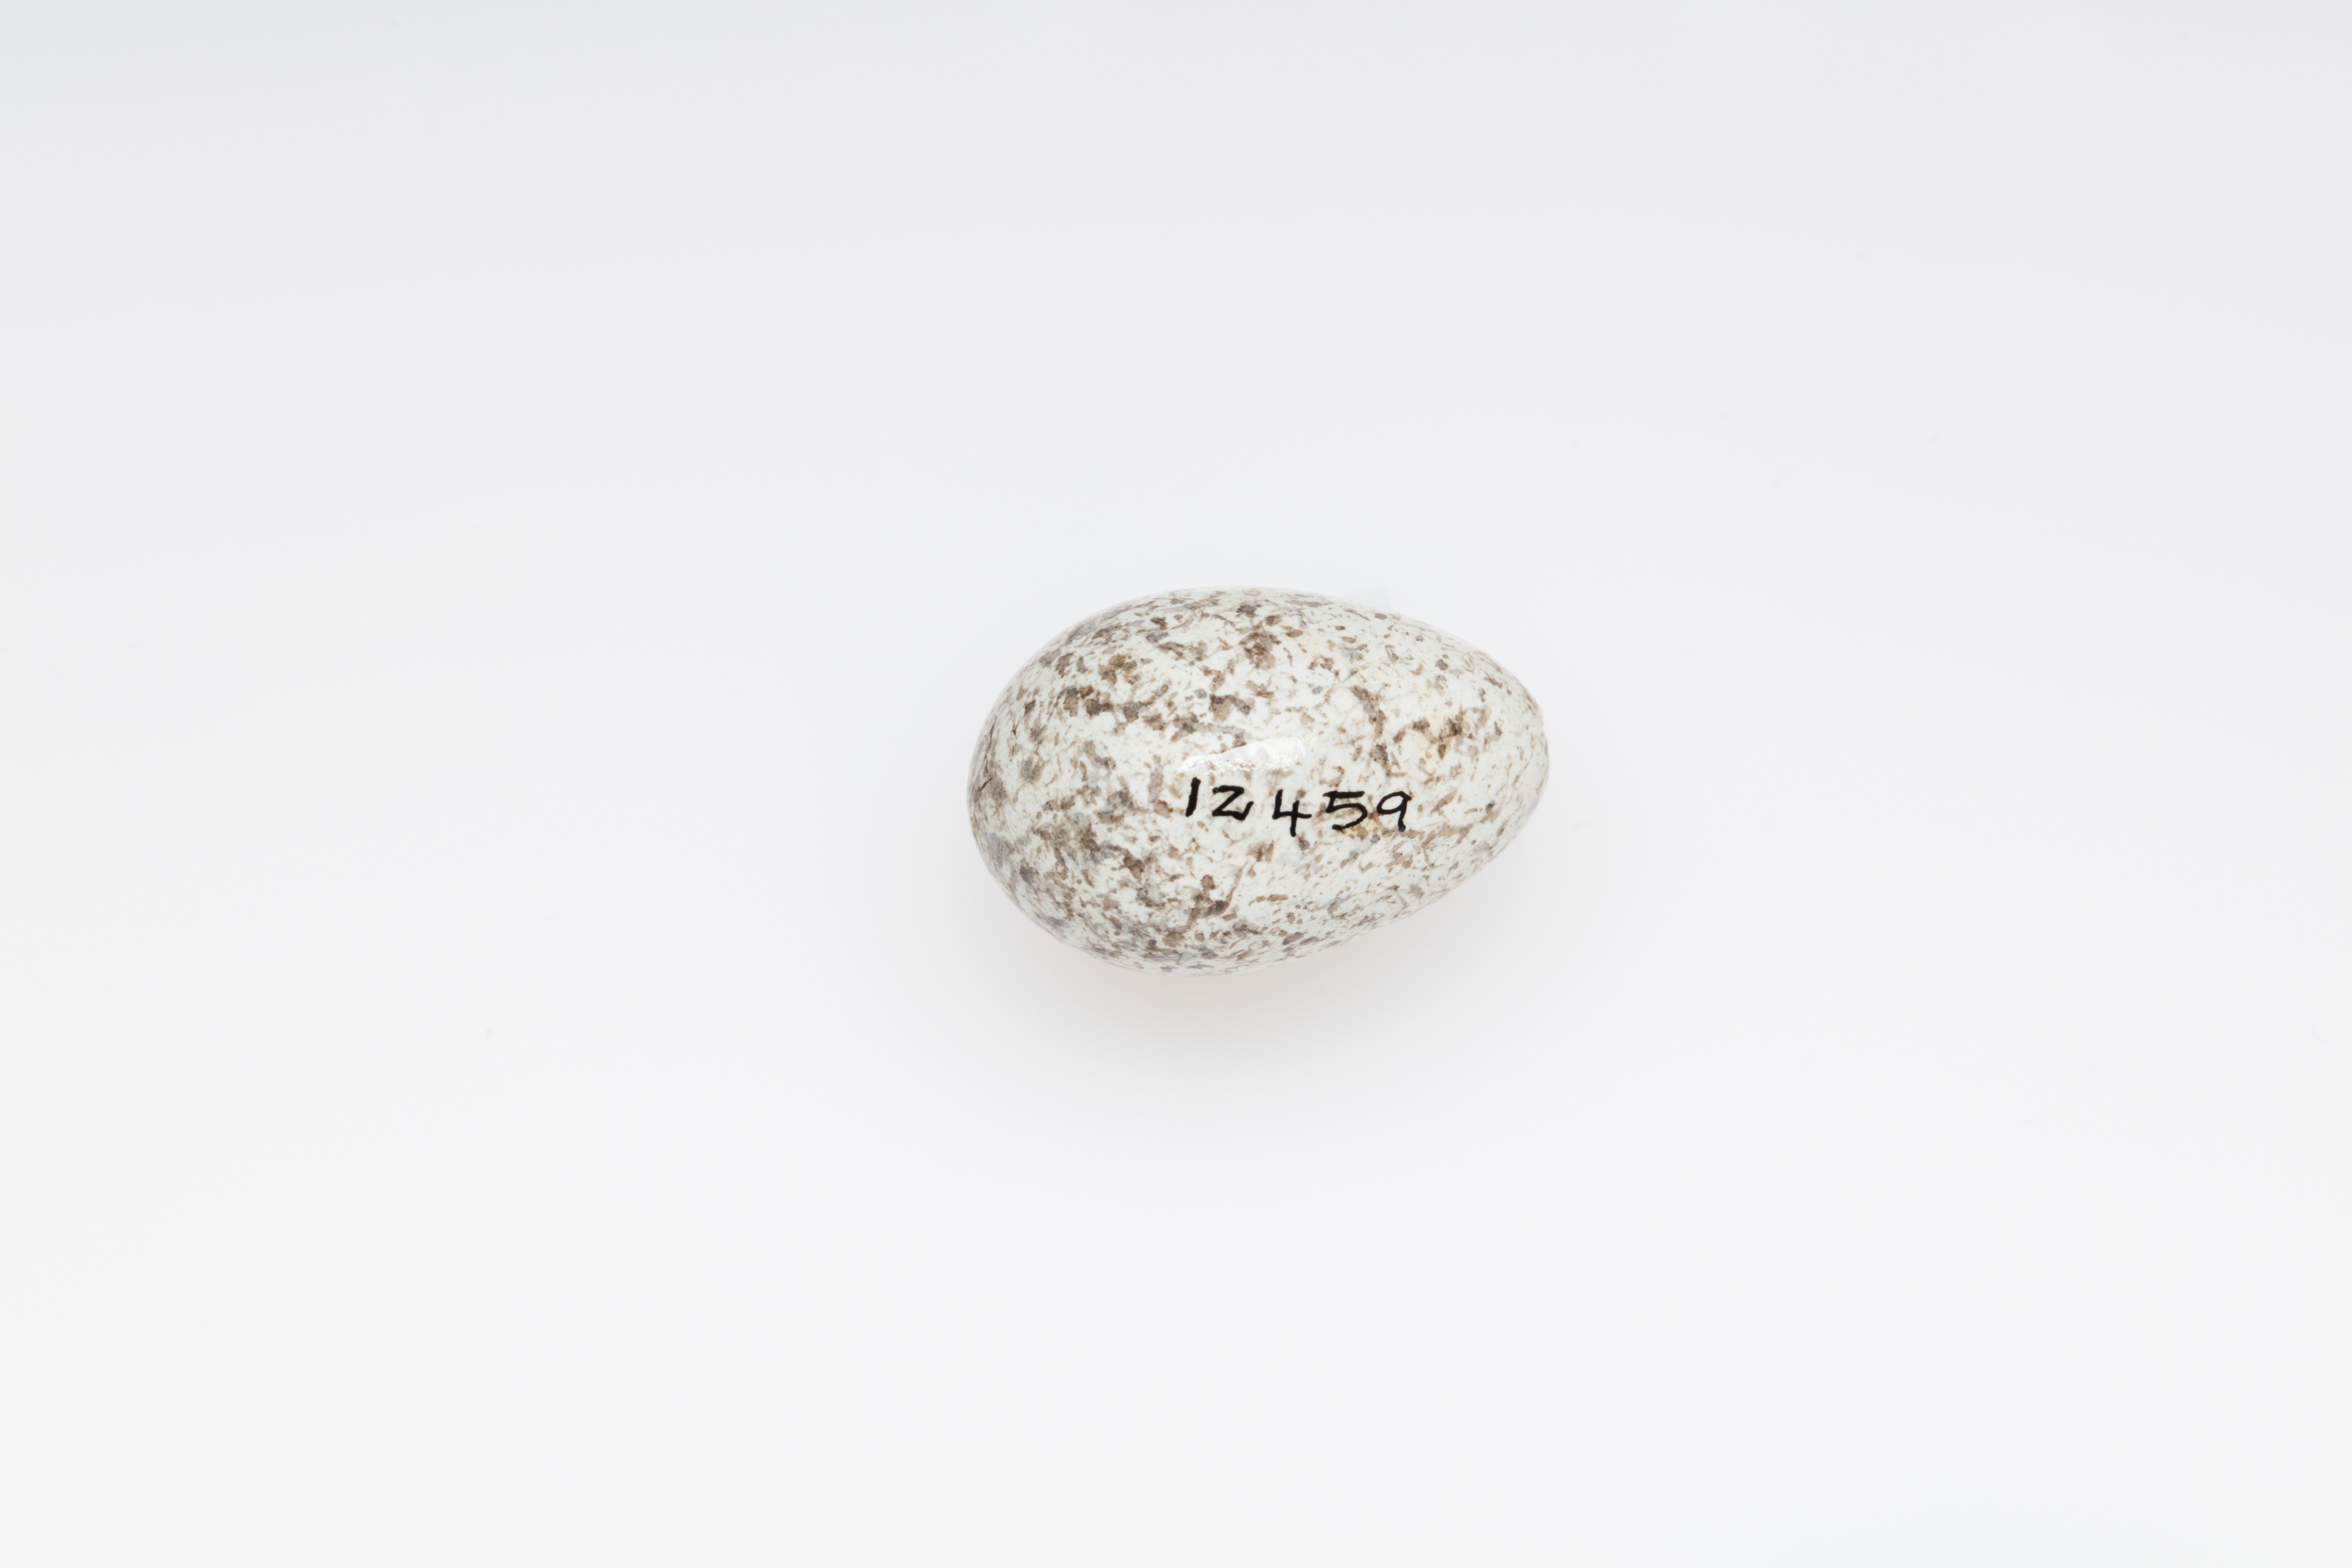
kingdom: Animalia
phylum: Chordata
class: Aves
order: Passeriformes
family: Alaudidae
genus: Lullula
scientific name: Lullula arborea
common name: Woodlark
